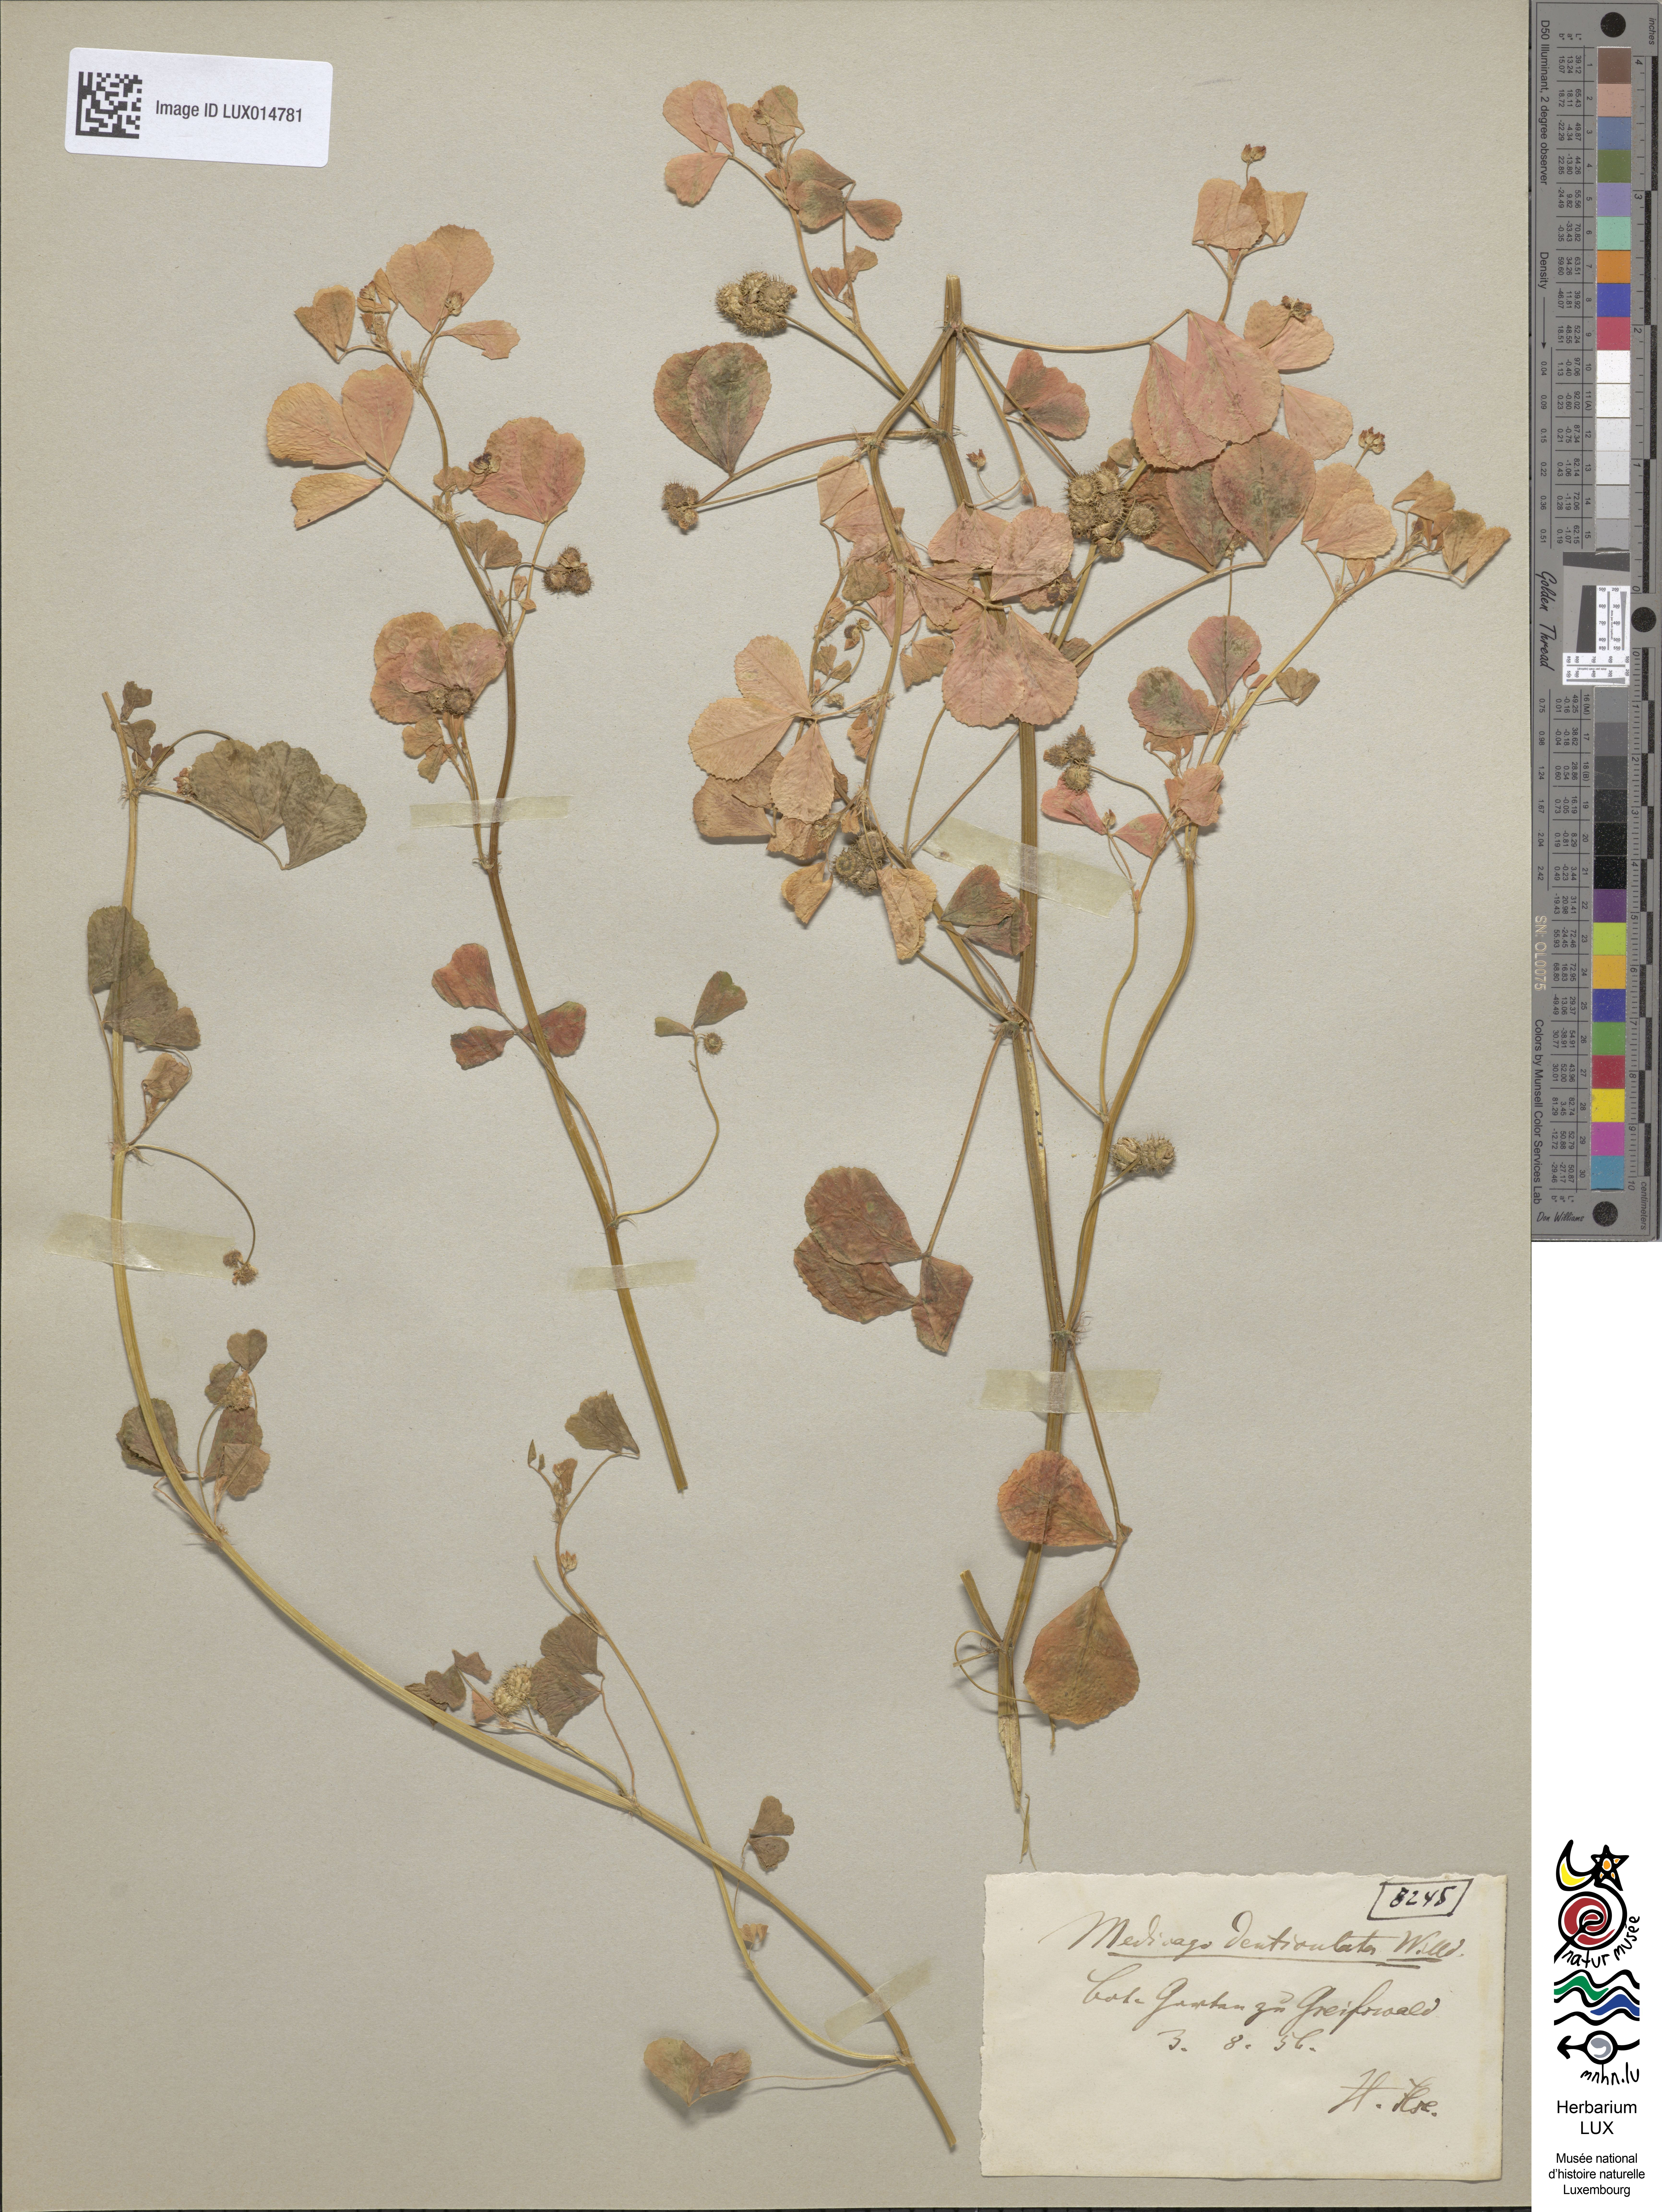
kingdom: Plantae
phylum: Tracheophyta
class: Magnoliopsida
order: Fabales
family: Fabaceae
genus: Medicago
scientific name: Medicago polymorpha
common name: Burclover
